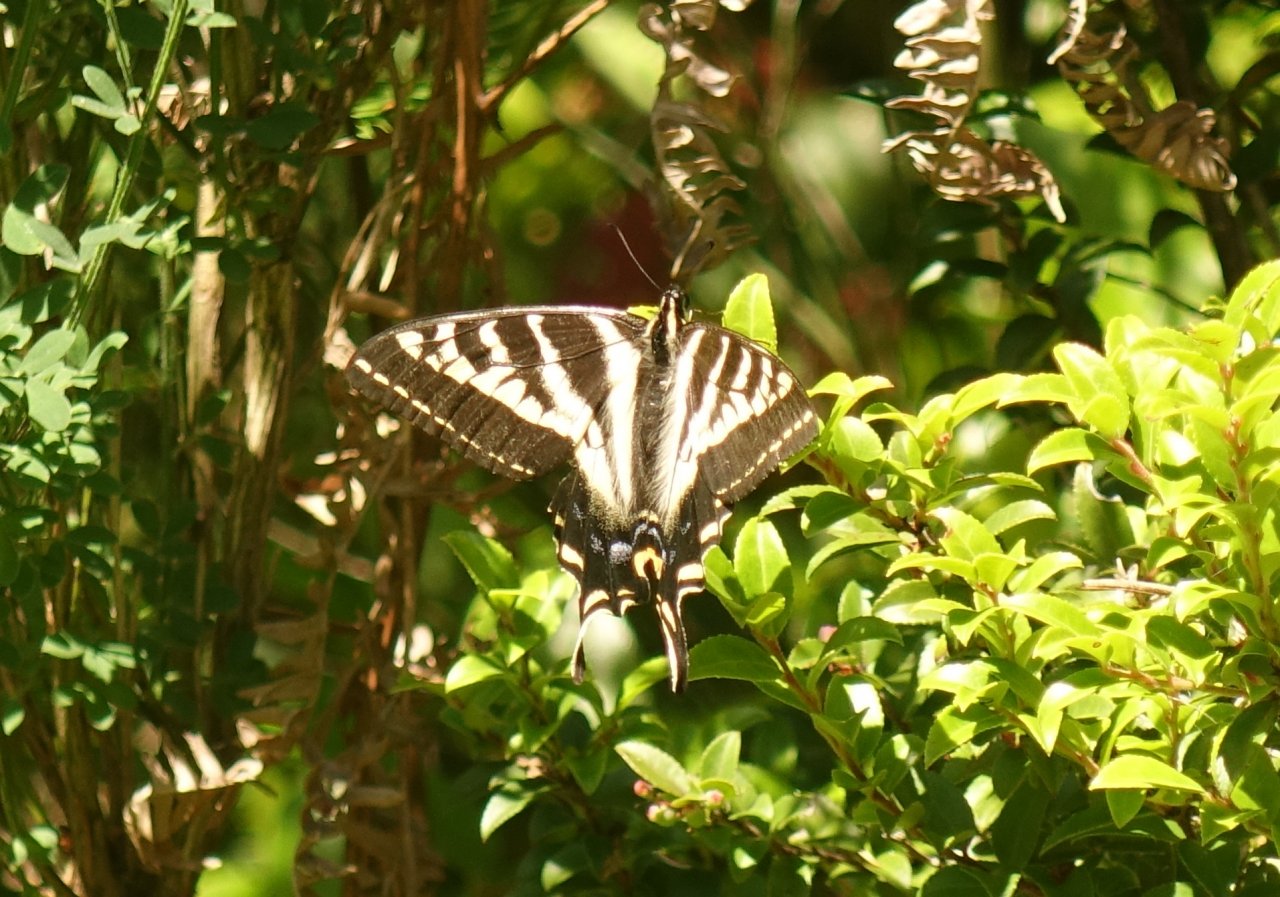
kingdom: Animalia
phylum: Arthropoda
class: Insecta
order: Lepidoptera
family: Papilionidae
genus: Pterourus
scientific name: Pterourus eurymedon
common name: Pale Swallowtail
